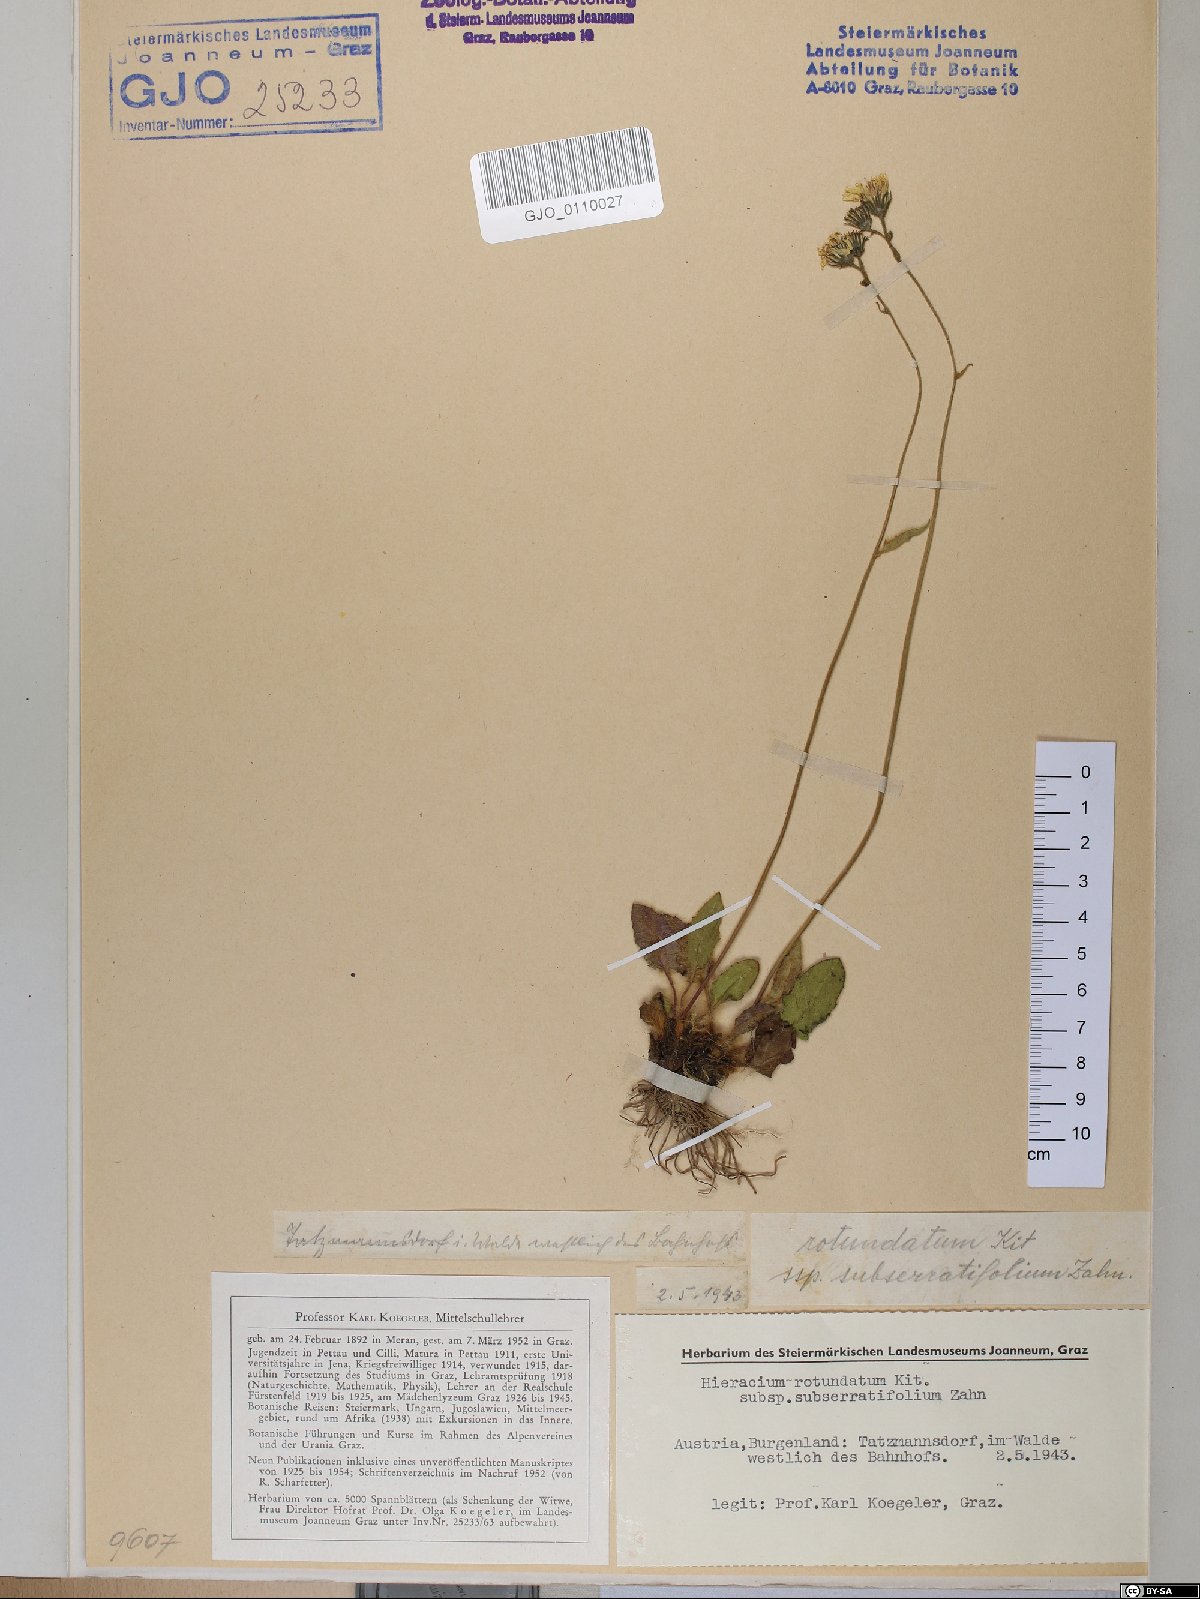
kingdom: Plantae
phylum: Tracheophyta
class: Magnoliopsida
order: Asterales
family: Asteraceae
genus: Hieracium
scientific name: Hieracium rotundatum
